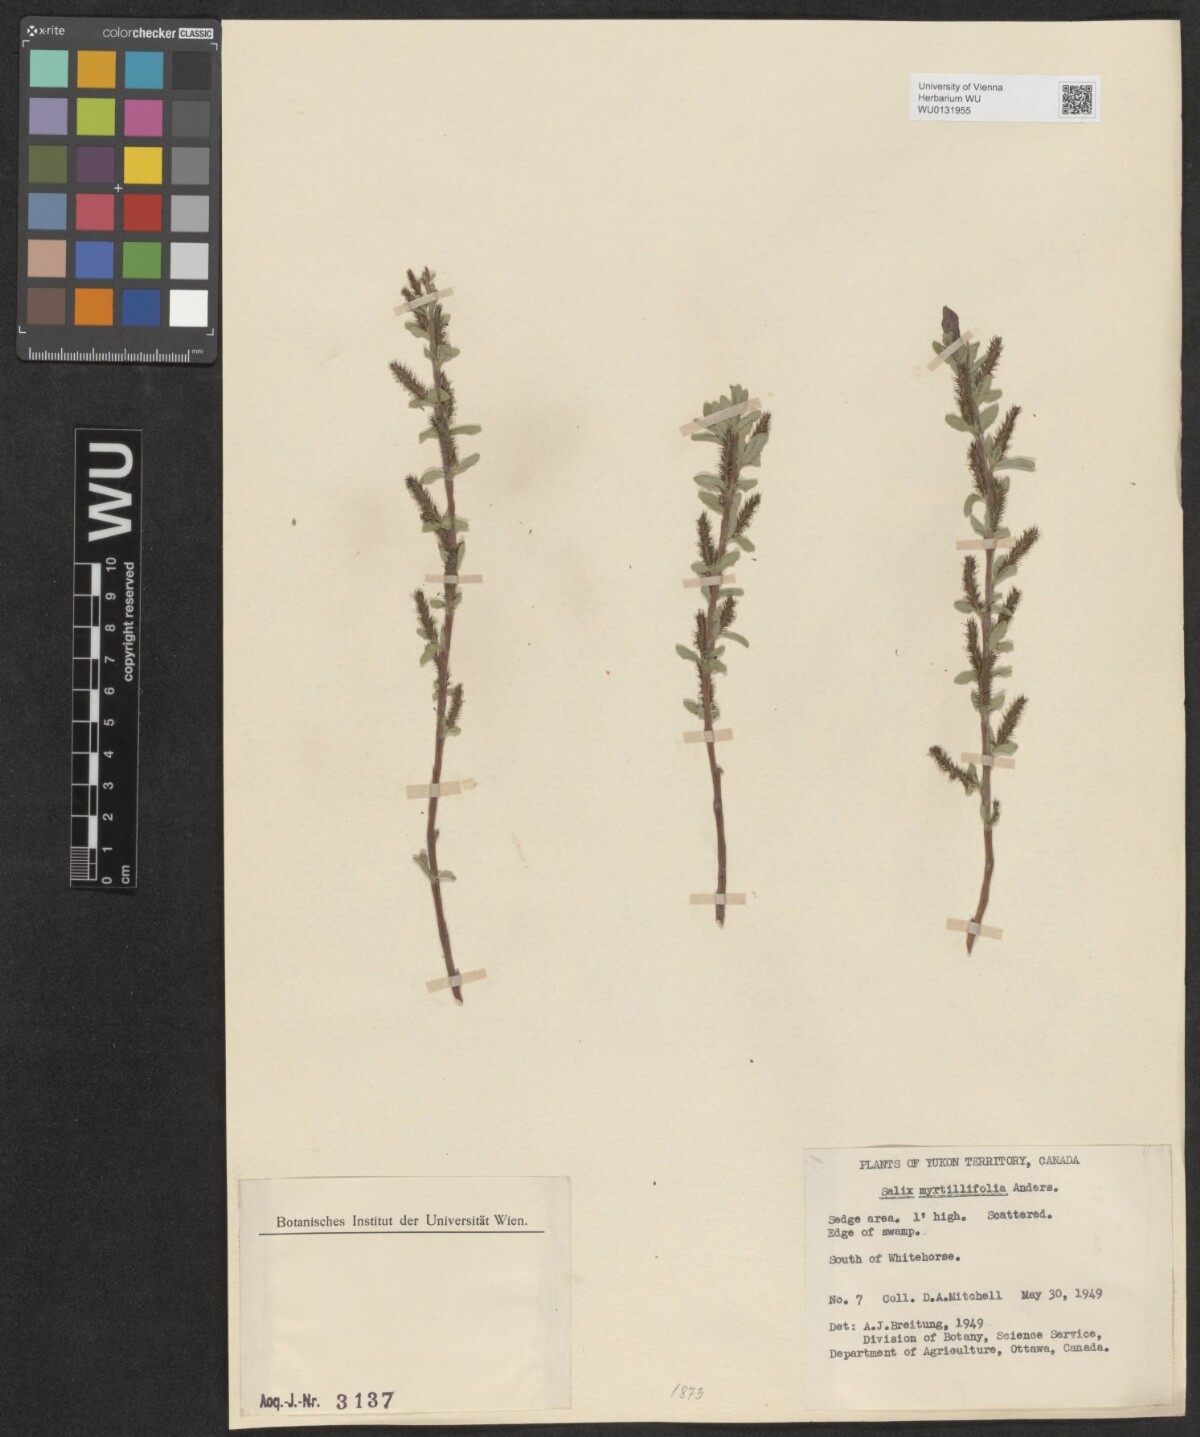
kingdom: Plantae
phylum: Tracheophyta
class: Magnoliopsida
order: Malpighiales
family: Salicaceae
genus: Salix
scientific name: Salix myrtillifolia
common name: Bilberry willow
